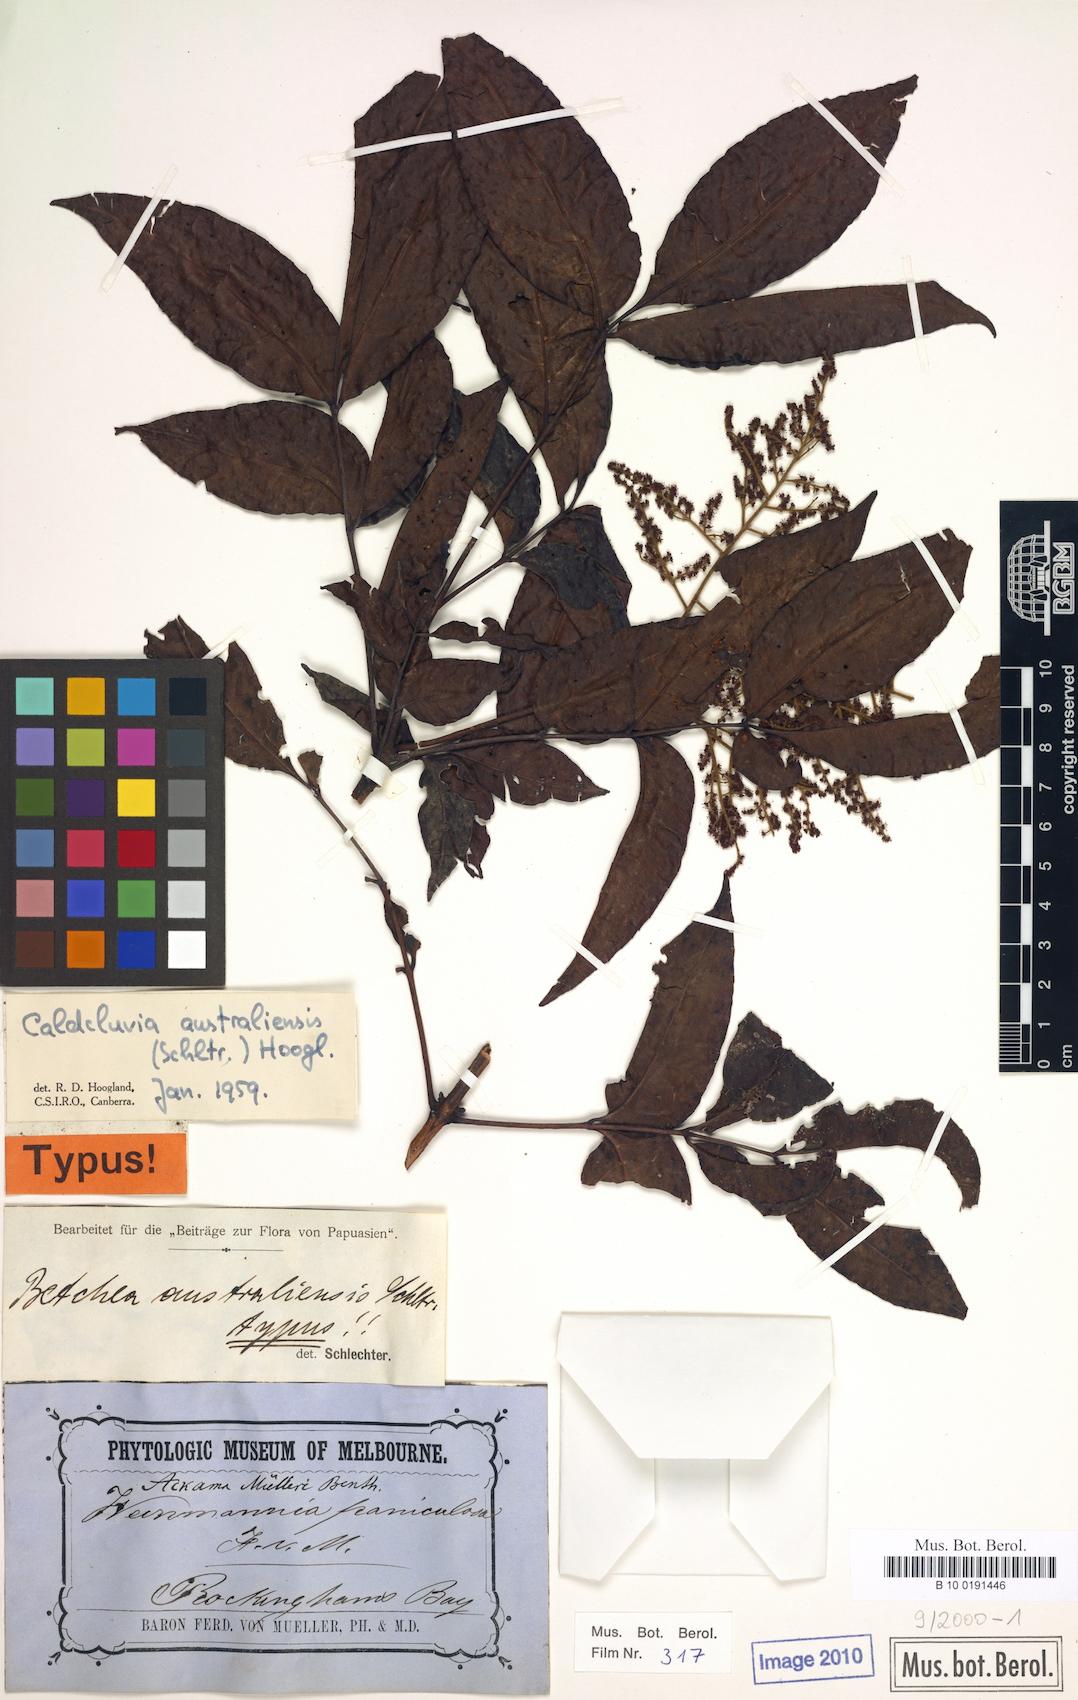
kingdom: Plantae
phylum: Tracheophyta
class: Magnoliopsida
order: Oxalidales
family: Cunoniaceae
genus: Ackama
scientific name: Ackama australiensis
